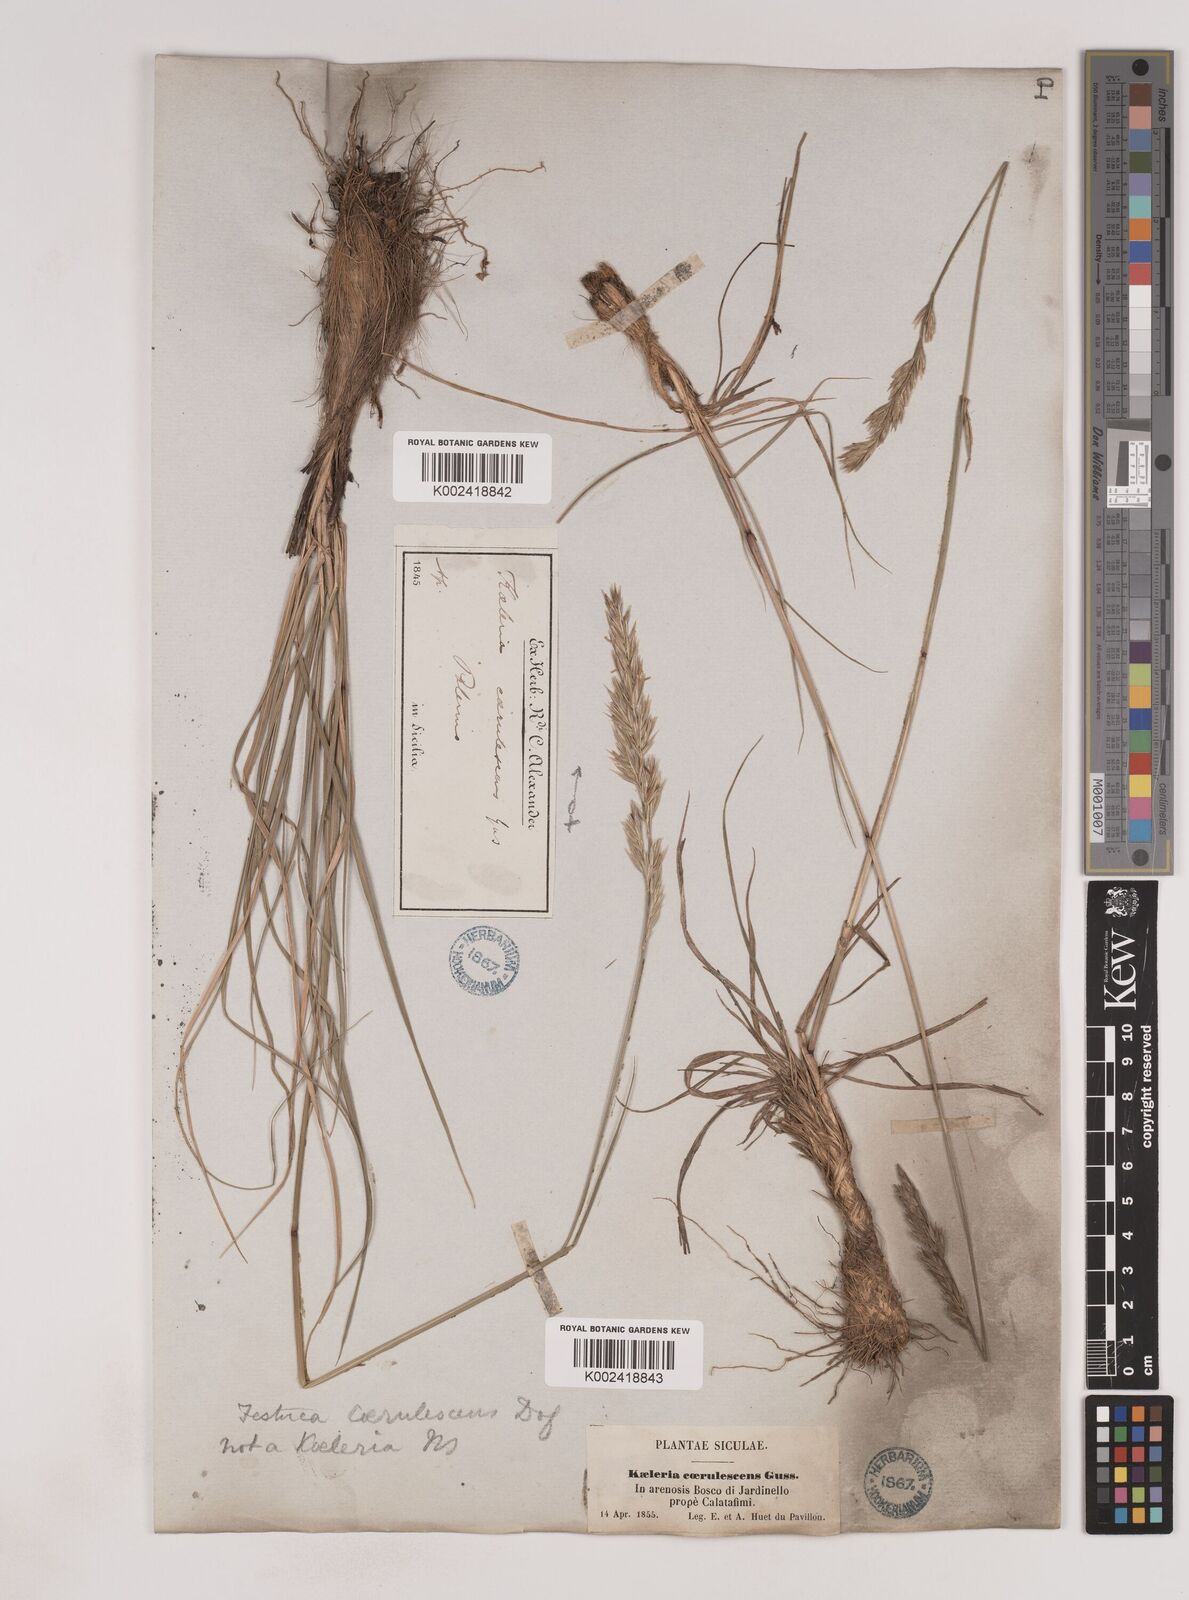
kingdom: Plantae
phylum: Tracheophyta
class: Liliopsida
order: Poales
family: Poaceae
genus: Patzkea
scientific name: Patzkea paniculata
